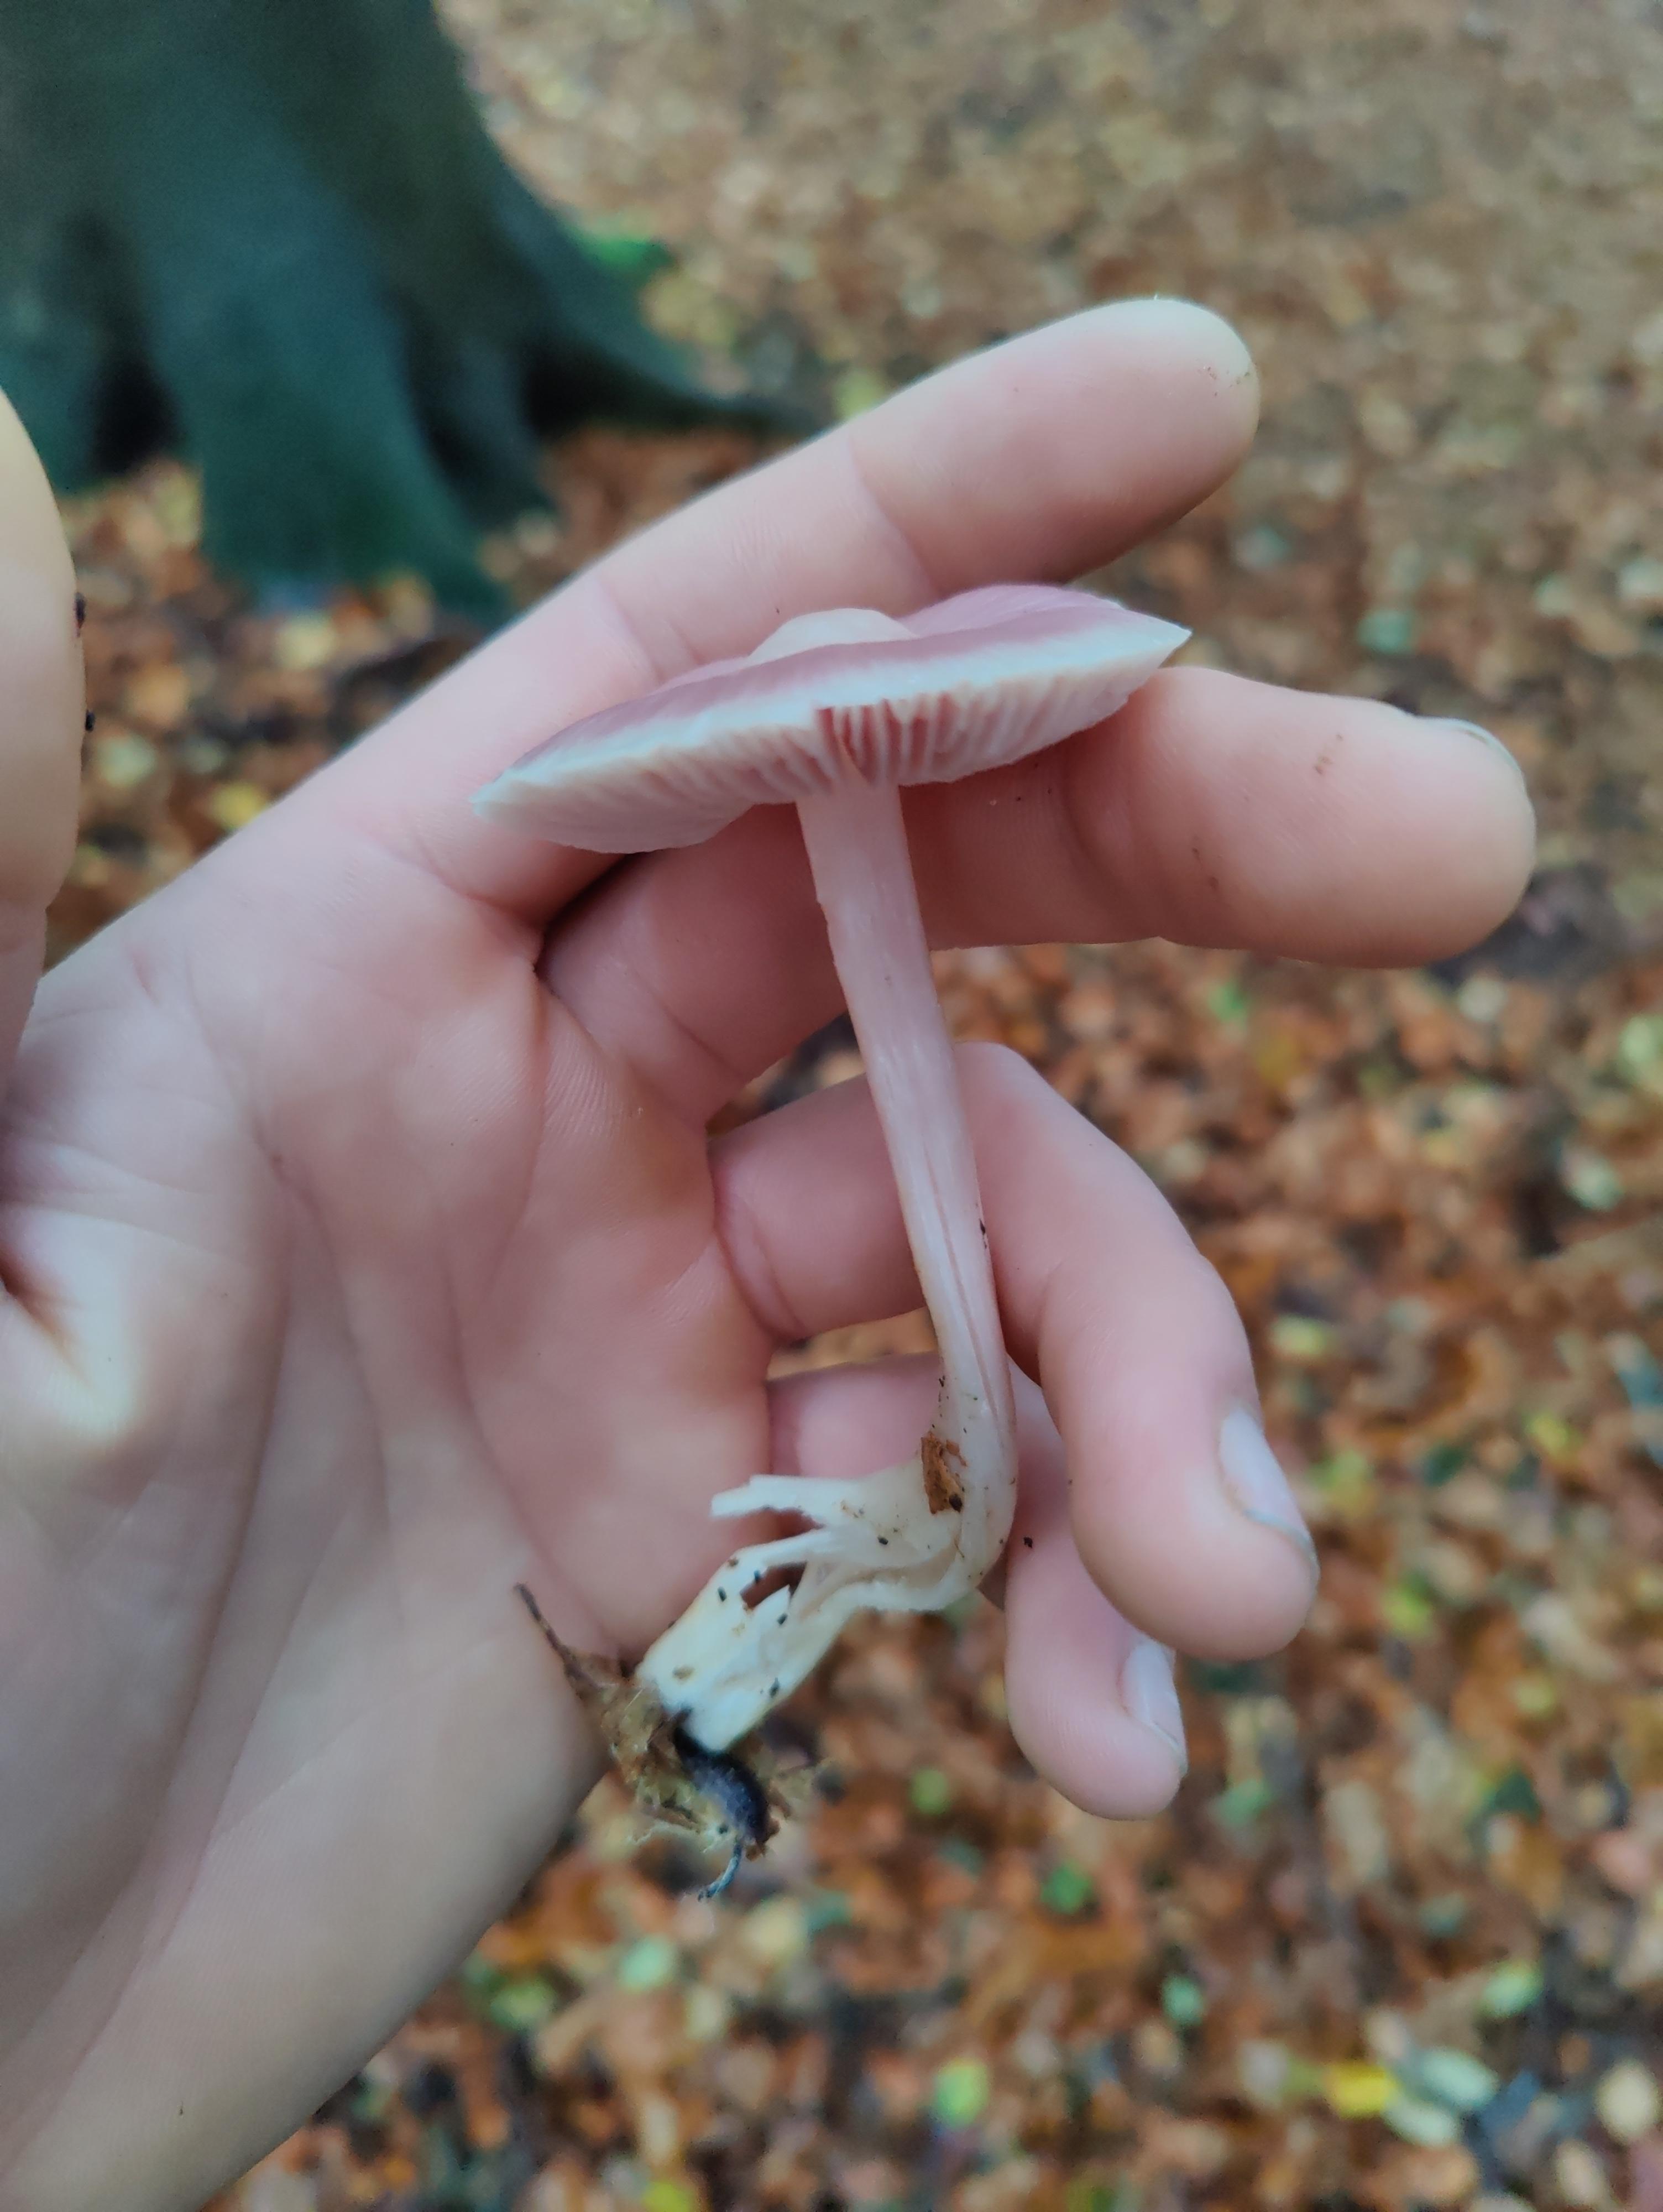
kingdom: Fungi
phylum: Basidiomycota
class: Agaricomycetes
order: Agaricales
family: Mycenaceae
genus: Mycena
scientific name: Mycena rosea
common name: rosa huesvamp
